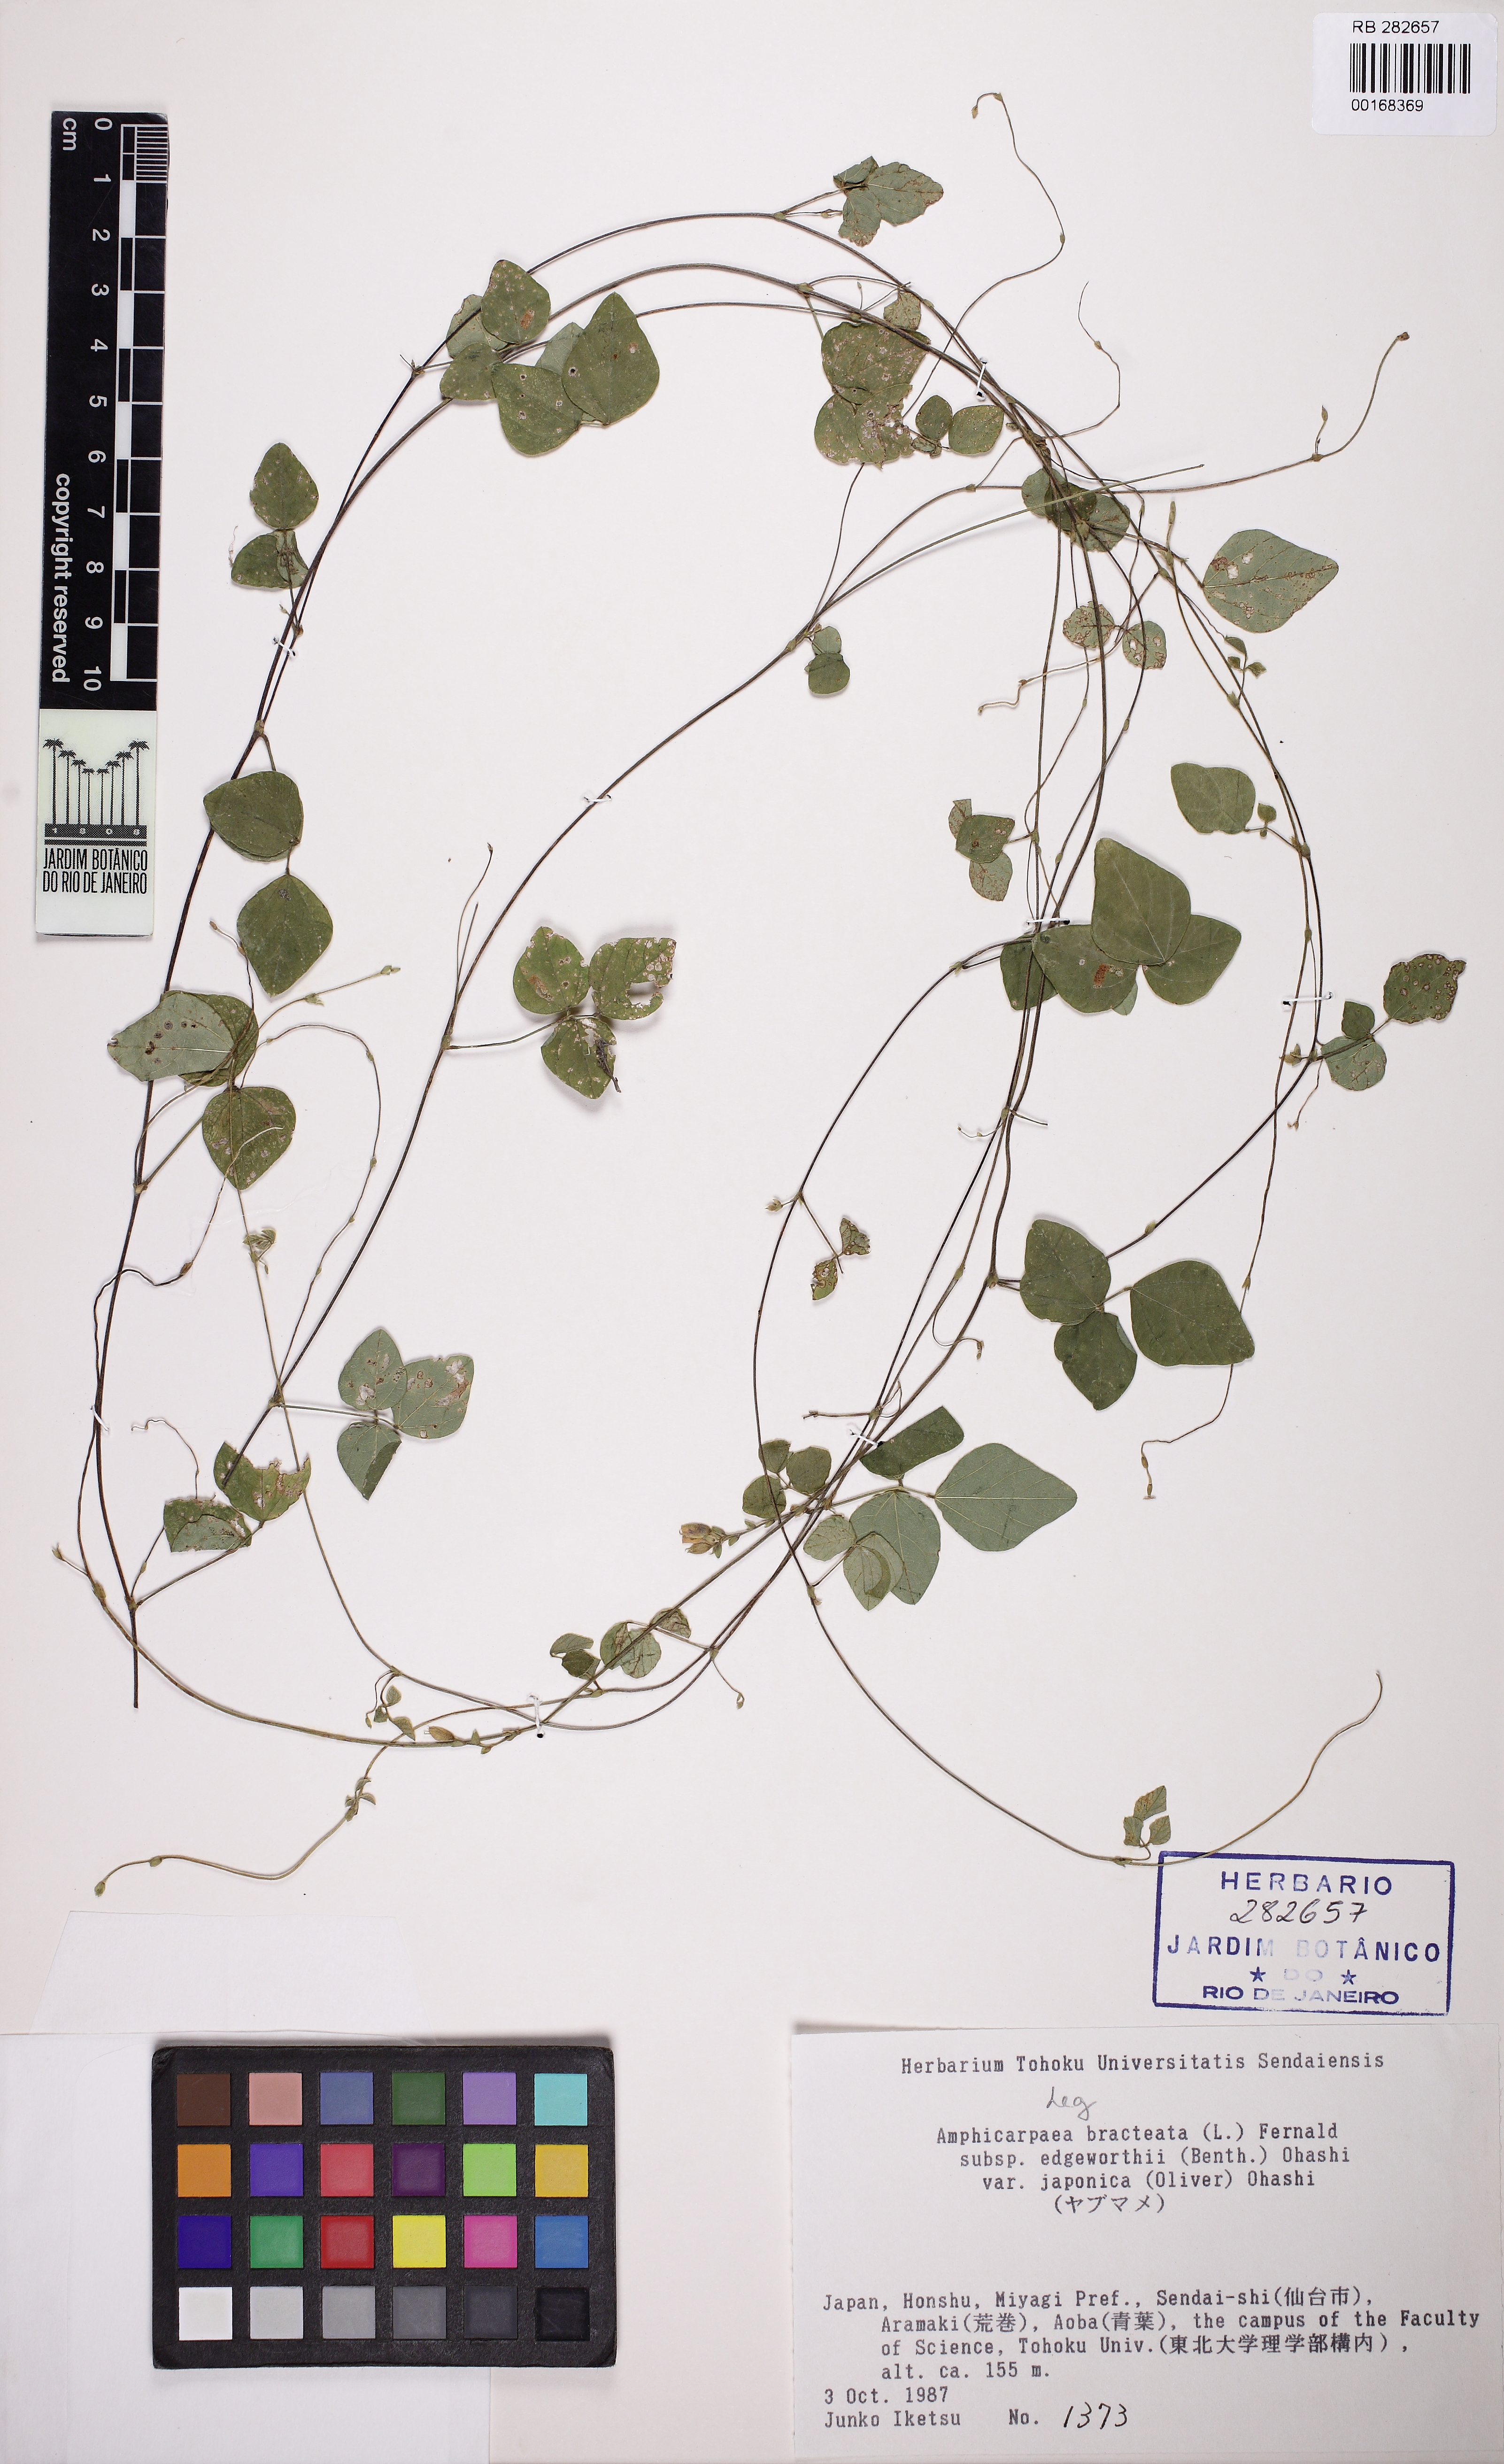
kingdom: Plantae
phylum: Tracheophyta
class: Magnoliopsida
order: Fabales
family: Fabaceae
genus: Amphicarpaea
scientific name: Amphicarpaea bracteata
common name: American hog peanut
